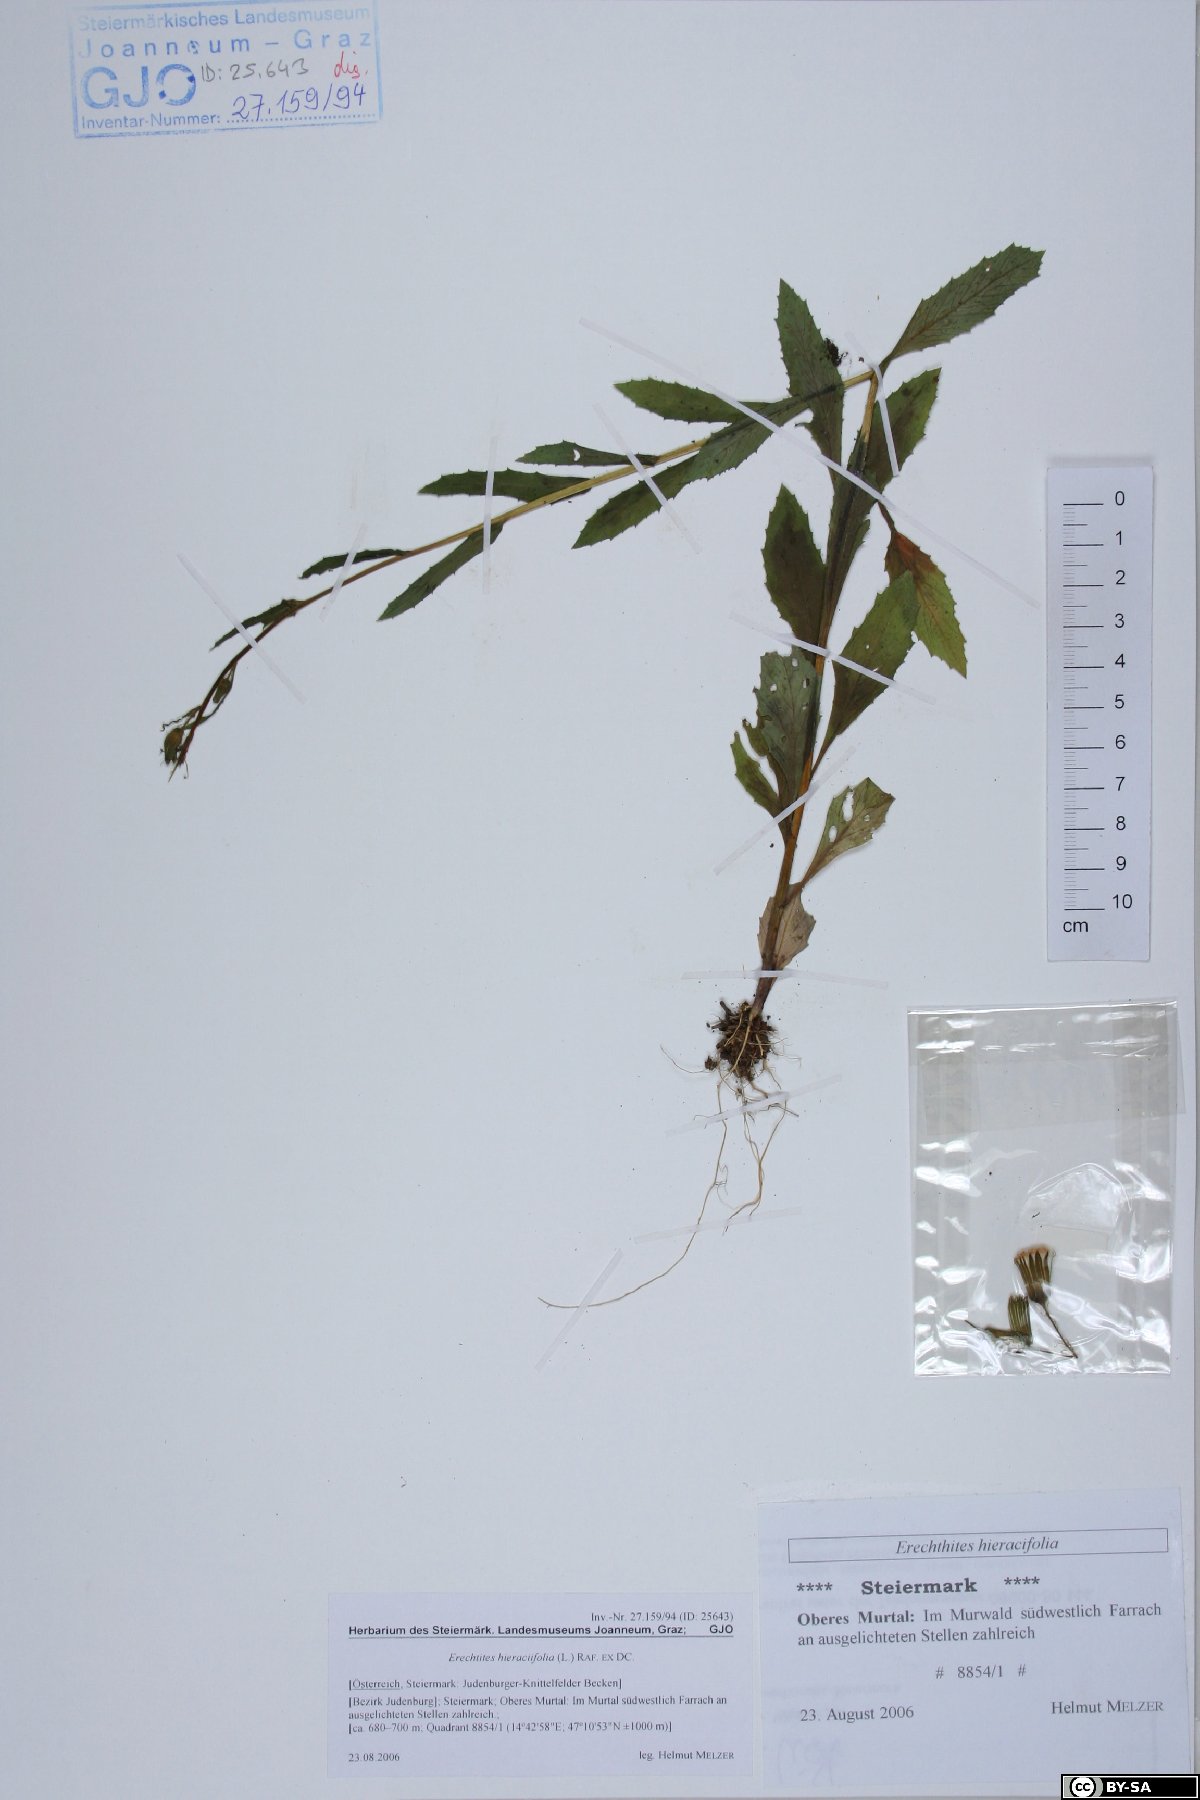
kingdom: Plantae
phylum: Tracheophyta
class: Magnoliopsida
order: Asterales
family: Asteraceae
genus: Erechtites
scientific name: Erechtites hieraciifolius
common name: American burnweed
